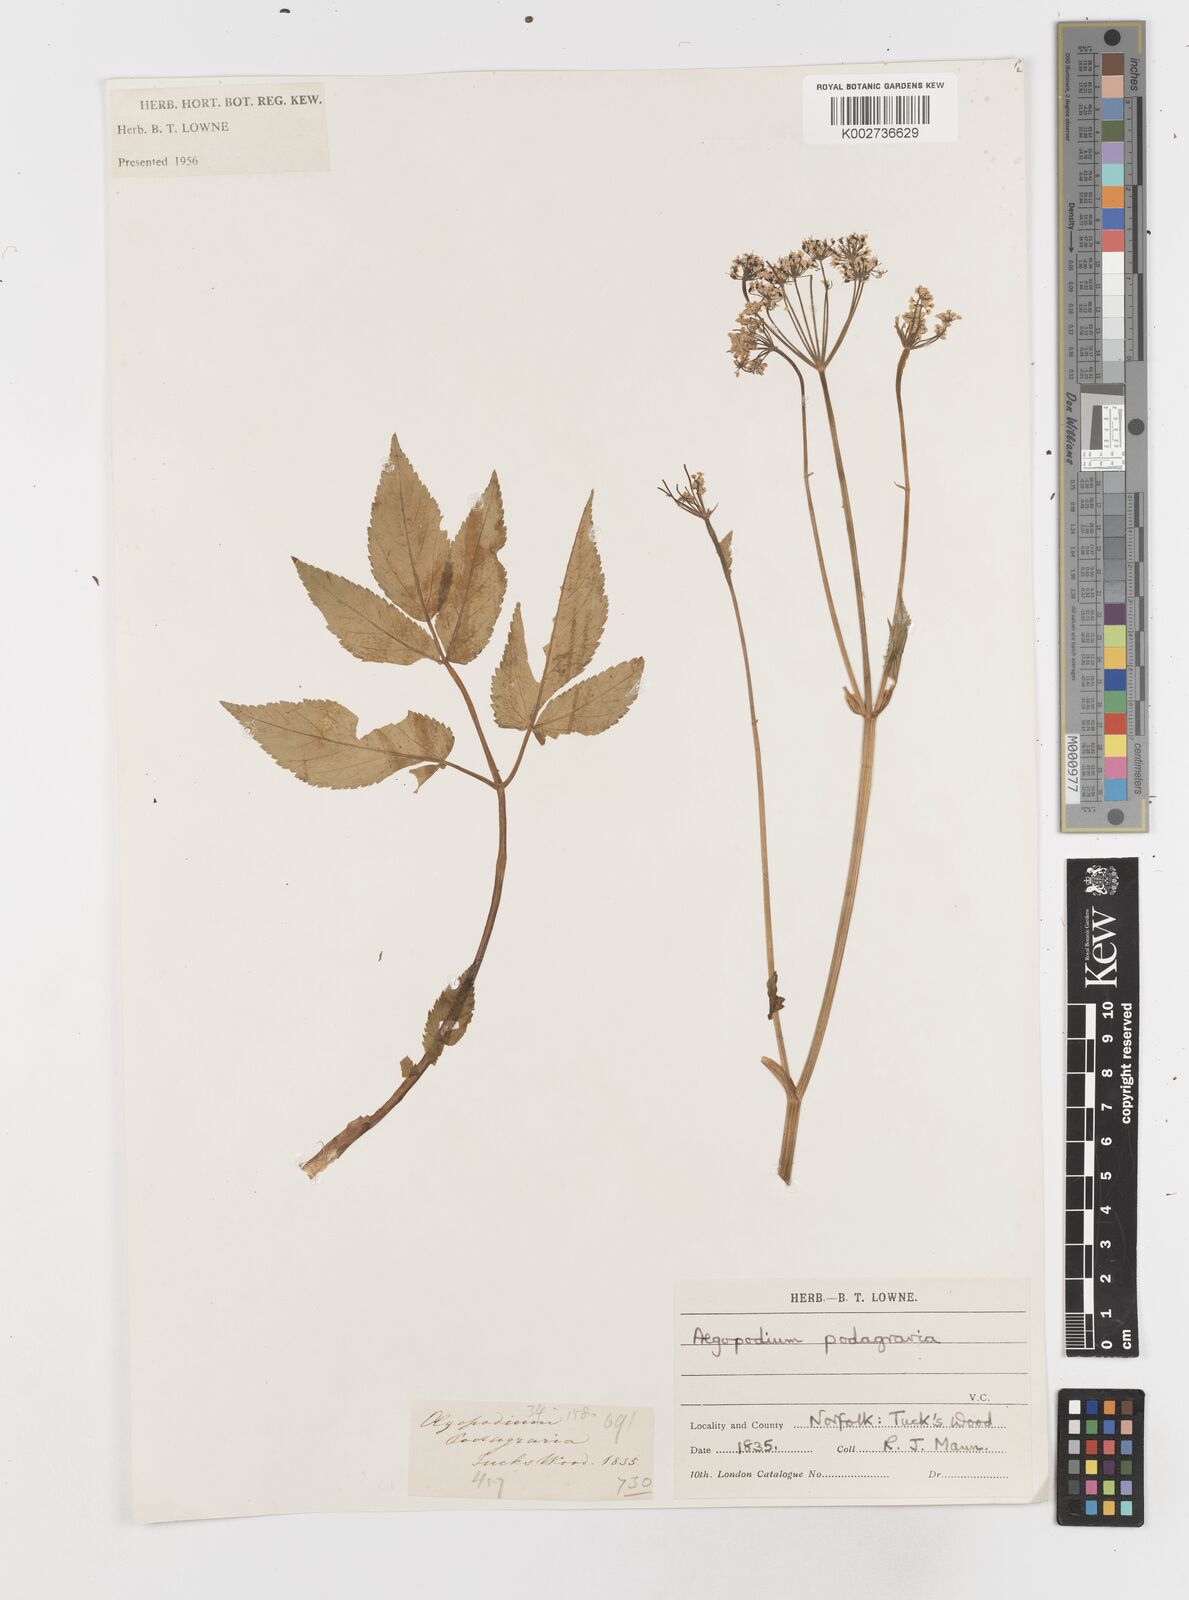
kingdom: Plantae
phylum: Tracheophyta
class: Magnoliopsida
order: Apiales
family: Apiaceae
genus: Aegopodium
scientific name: Aegopodium podagraria
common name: Ground-elder
